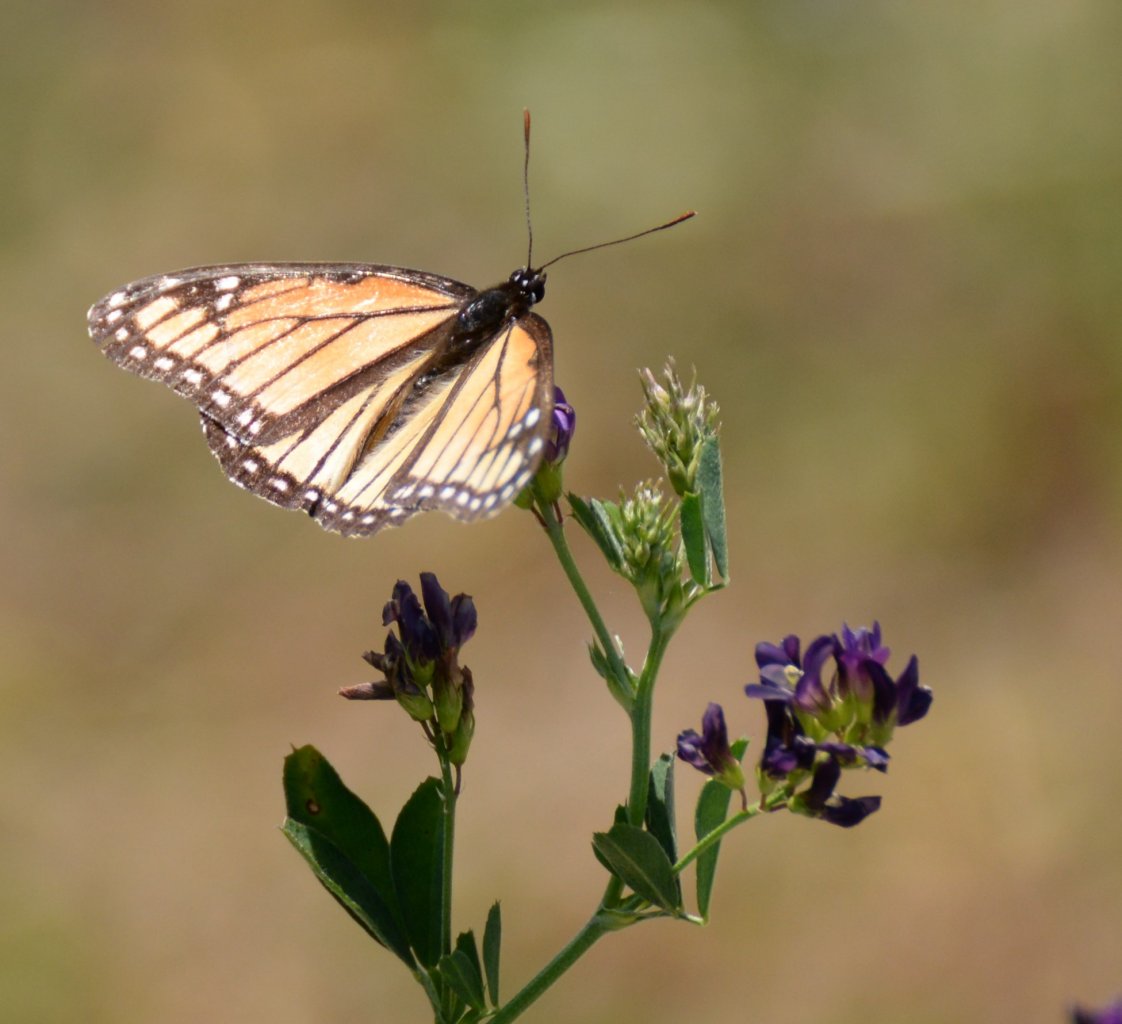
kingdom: Animalia
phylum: Arthropoda
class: Insecta
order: Lepidoptera
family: Nymphalidae
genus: Limenitis
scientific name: Limenitis archippus
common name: Viceroy
